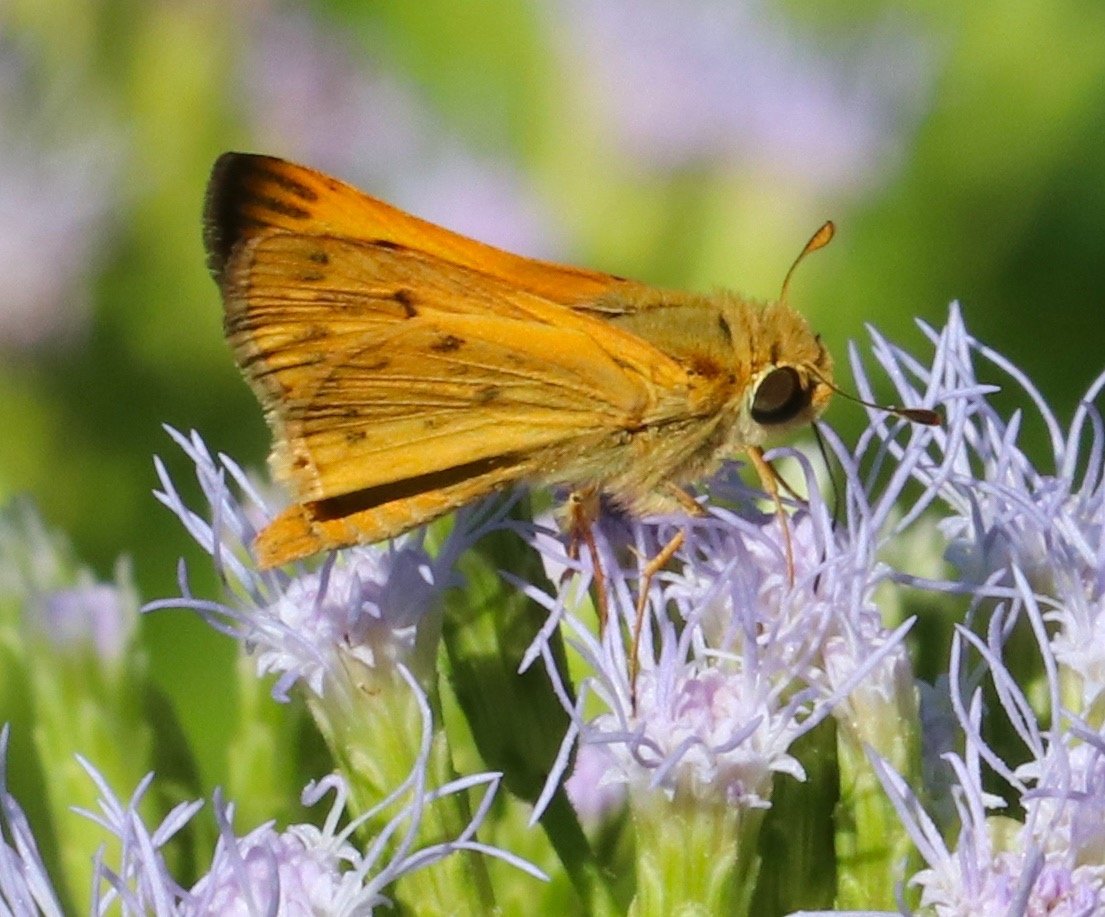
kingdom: Animalia
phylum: Arthropoda
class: Insecta
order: Lepidoptera
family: Hesperiidae
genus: Hylephila
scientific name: Hylephila phyleus
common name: Fiery Skipper
